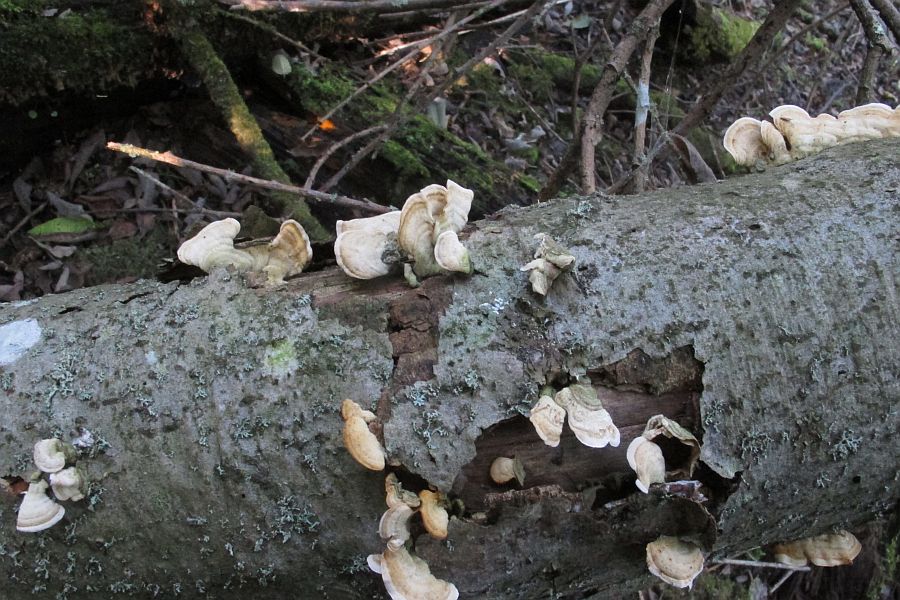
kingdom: Fungi
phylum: Basidiomycota
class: Agaricomycetes
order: Russulales
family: Stereaceae
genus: Stereum
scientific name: Stereum hirsutum
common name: håret lædersvamp
